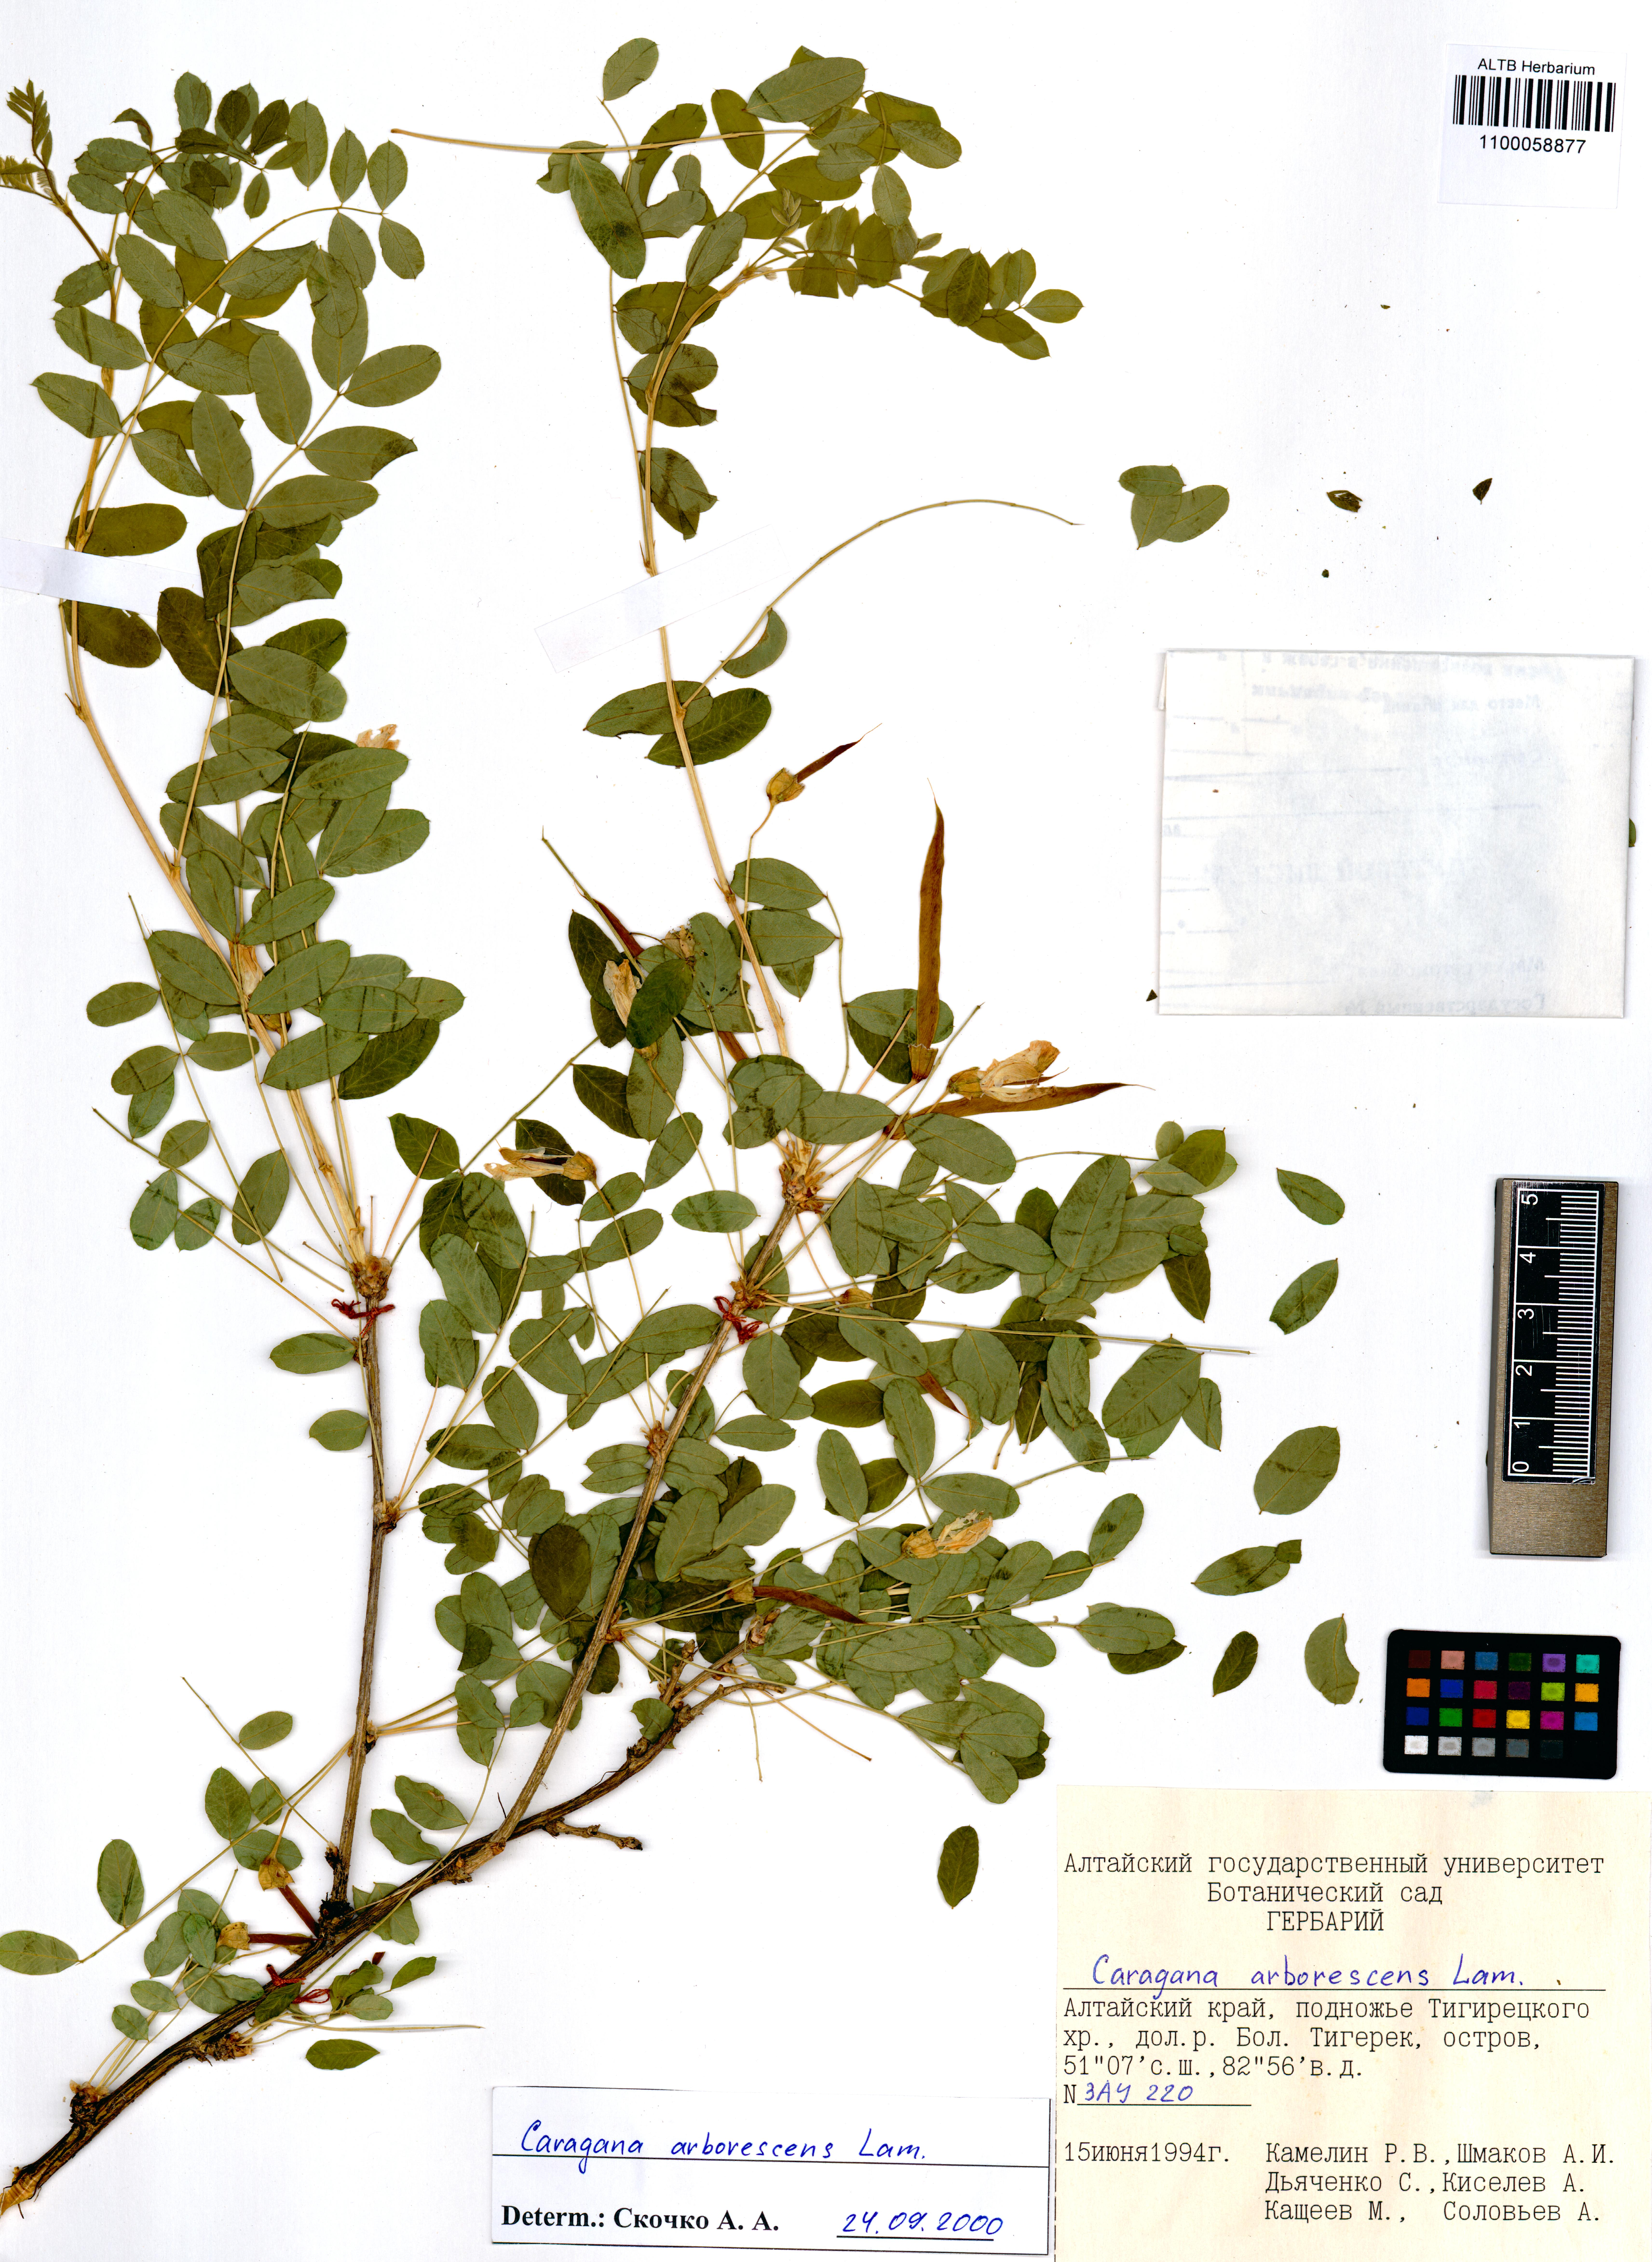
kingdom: Plantae
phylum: Tracheophyta
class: Magnoliopsida
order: Fabales
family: Fabaceae
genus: Caragana
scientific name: Caragana arborescens
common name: Siberian peashrub
